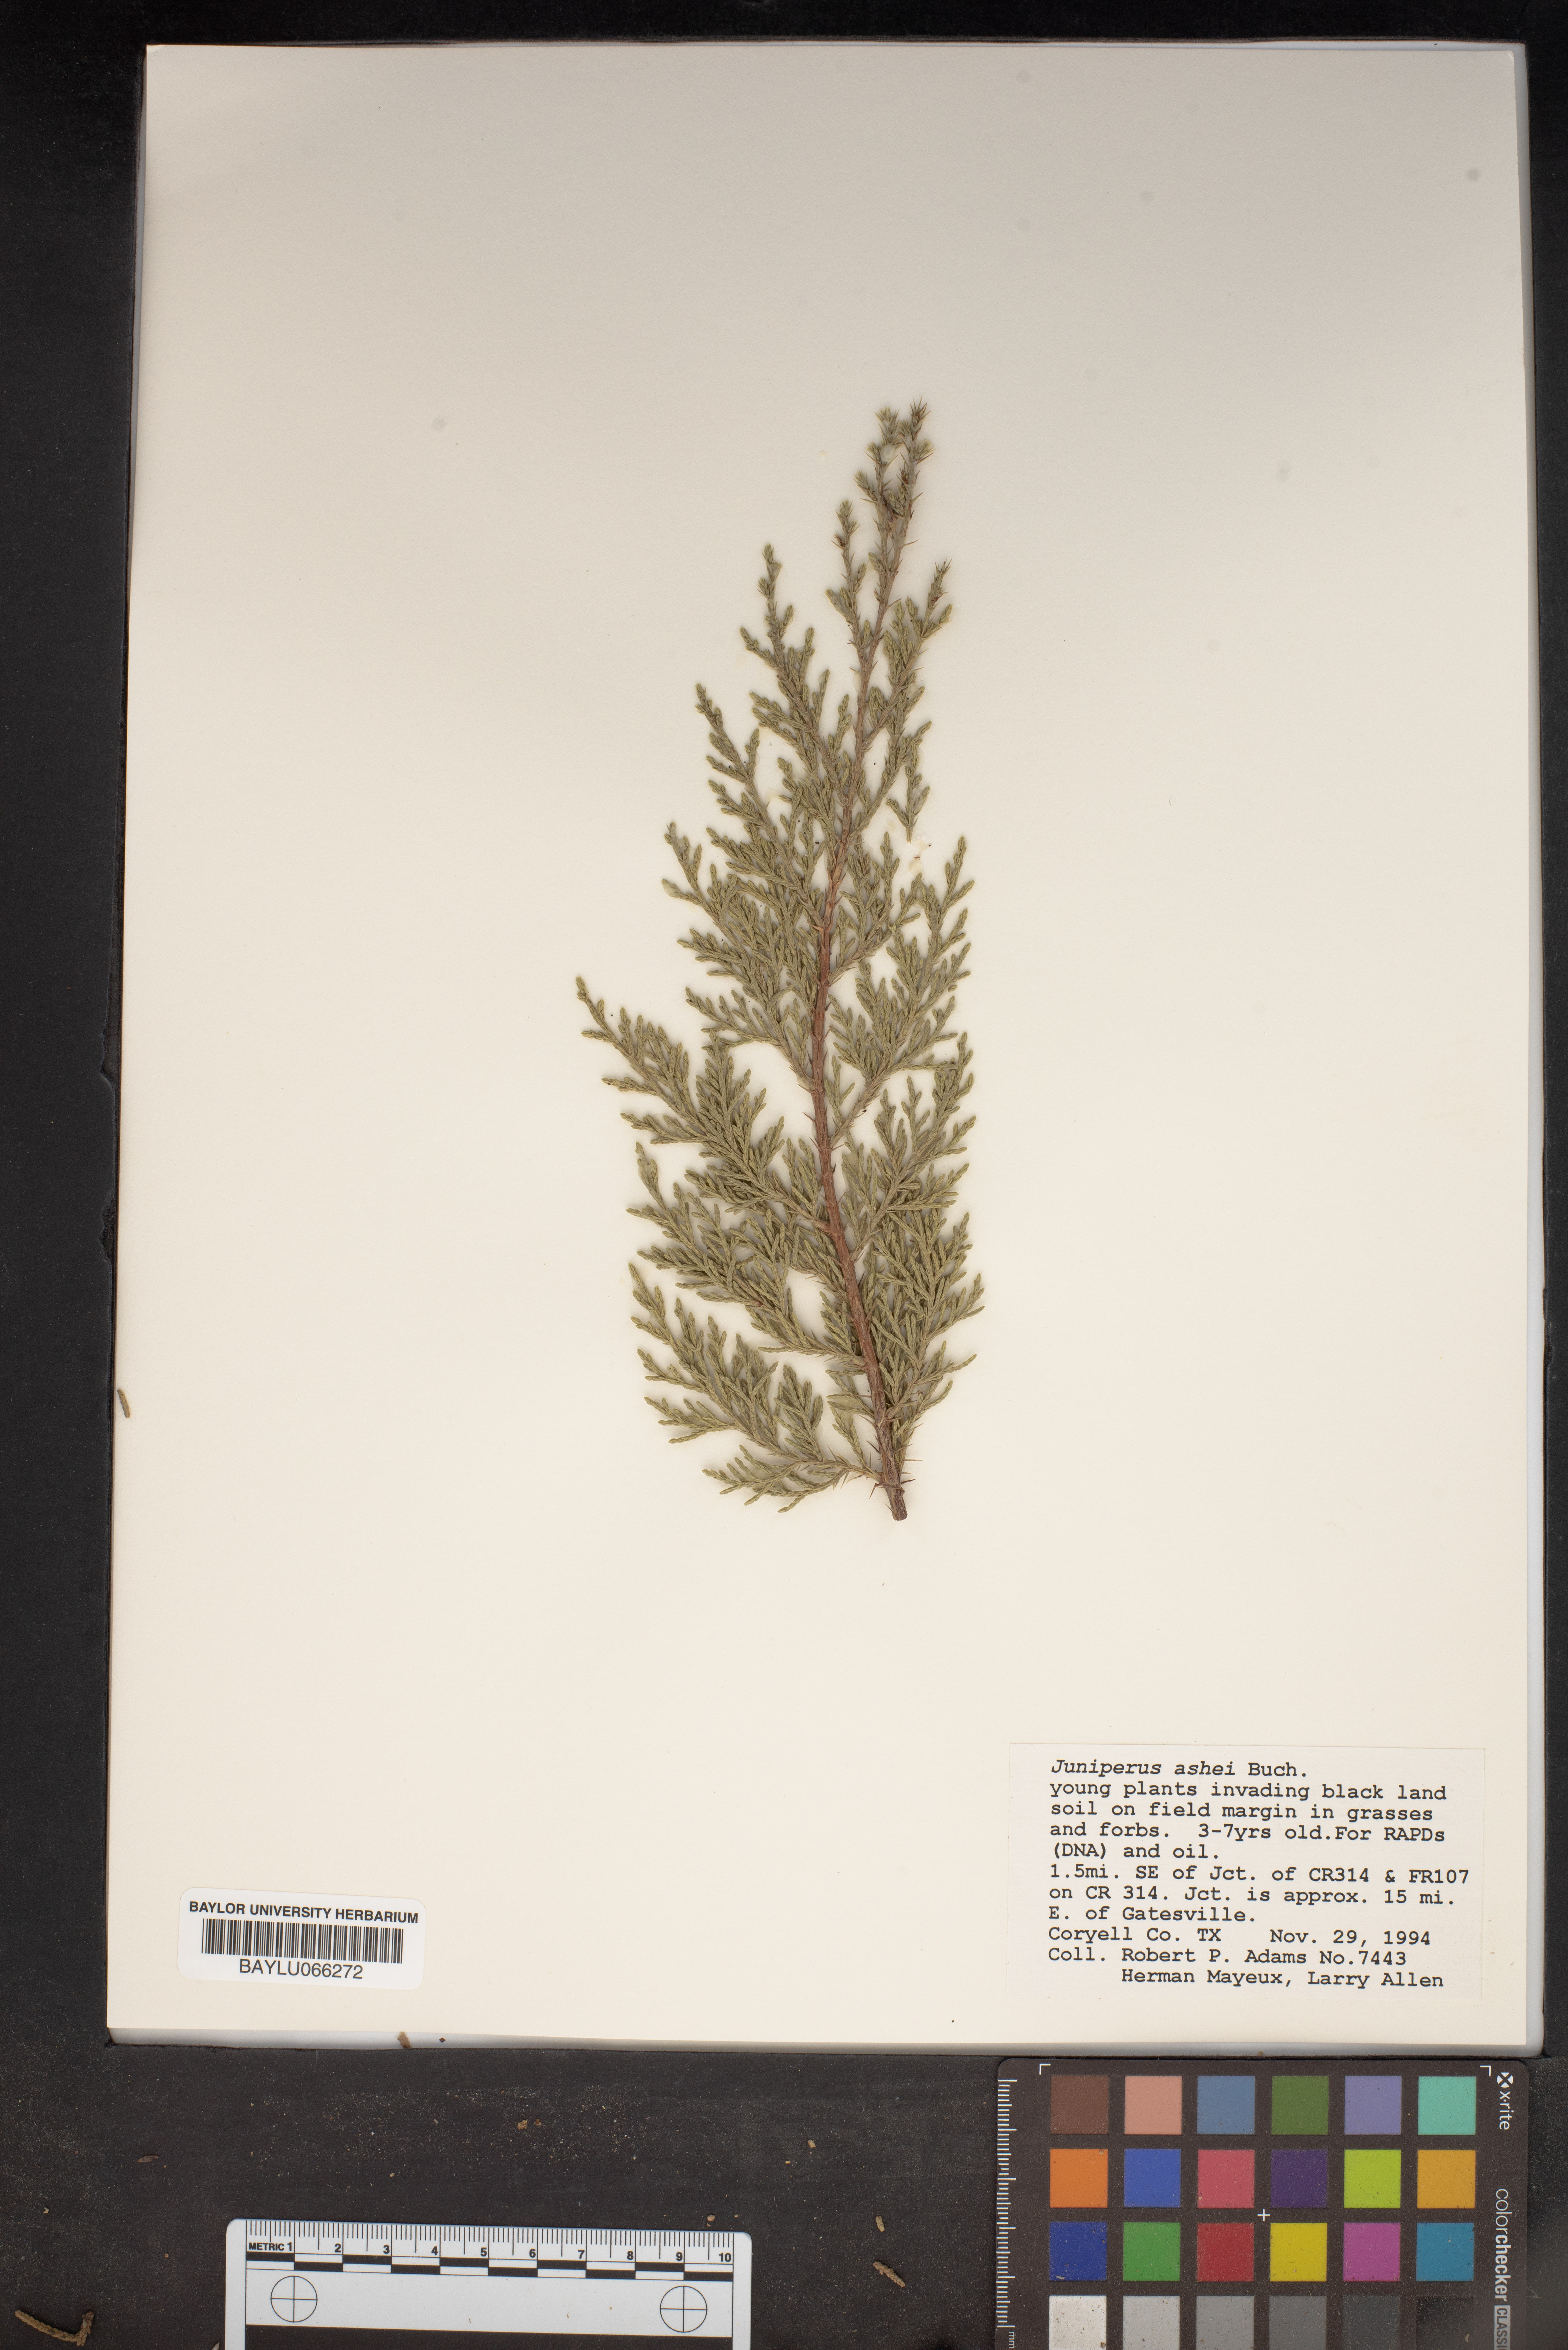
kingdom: Plantae
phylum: Tracheophyta
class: Pinopsida
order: Pinales
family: Cupressaceae
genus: Juniperus
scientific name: Juniperus ashei
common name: Mexican juniper
